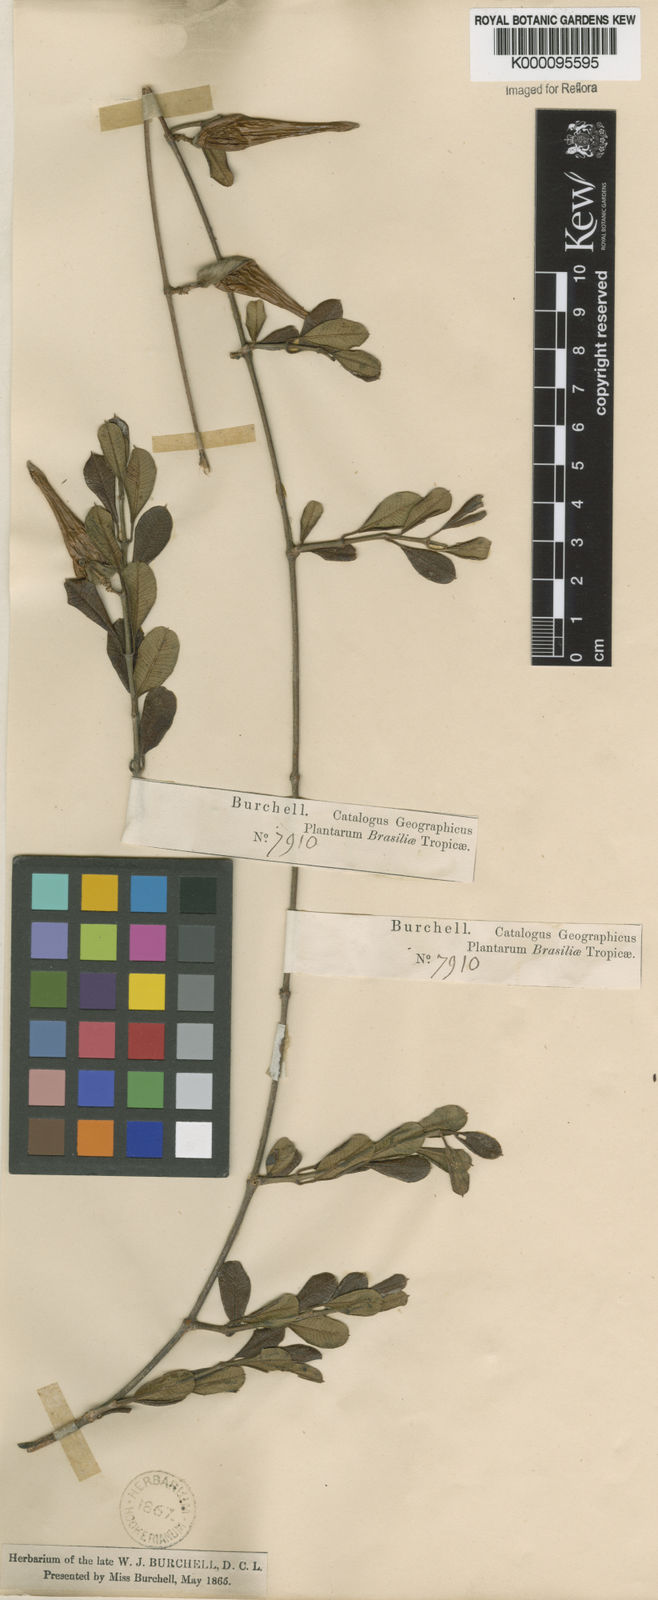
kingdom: Plantae
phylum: Tracheophyta
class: Magnoliopsida
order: Gentianales
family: Apocynaceae
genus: Ditassa
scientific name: Ditassa retusa
